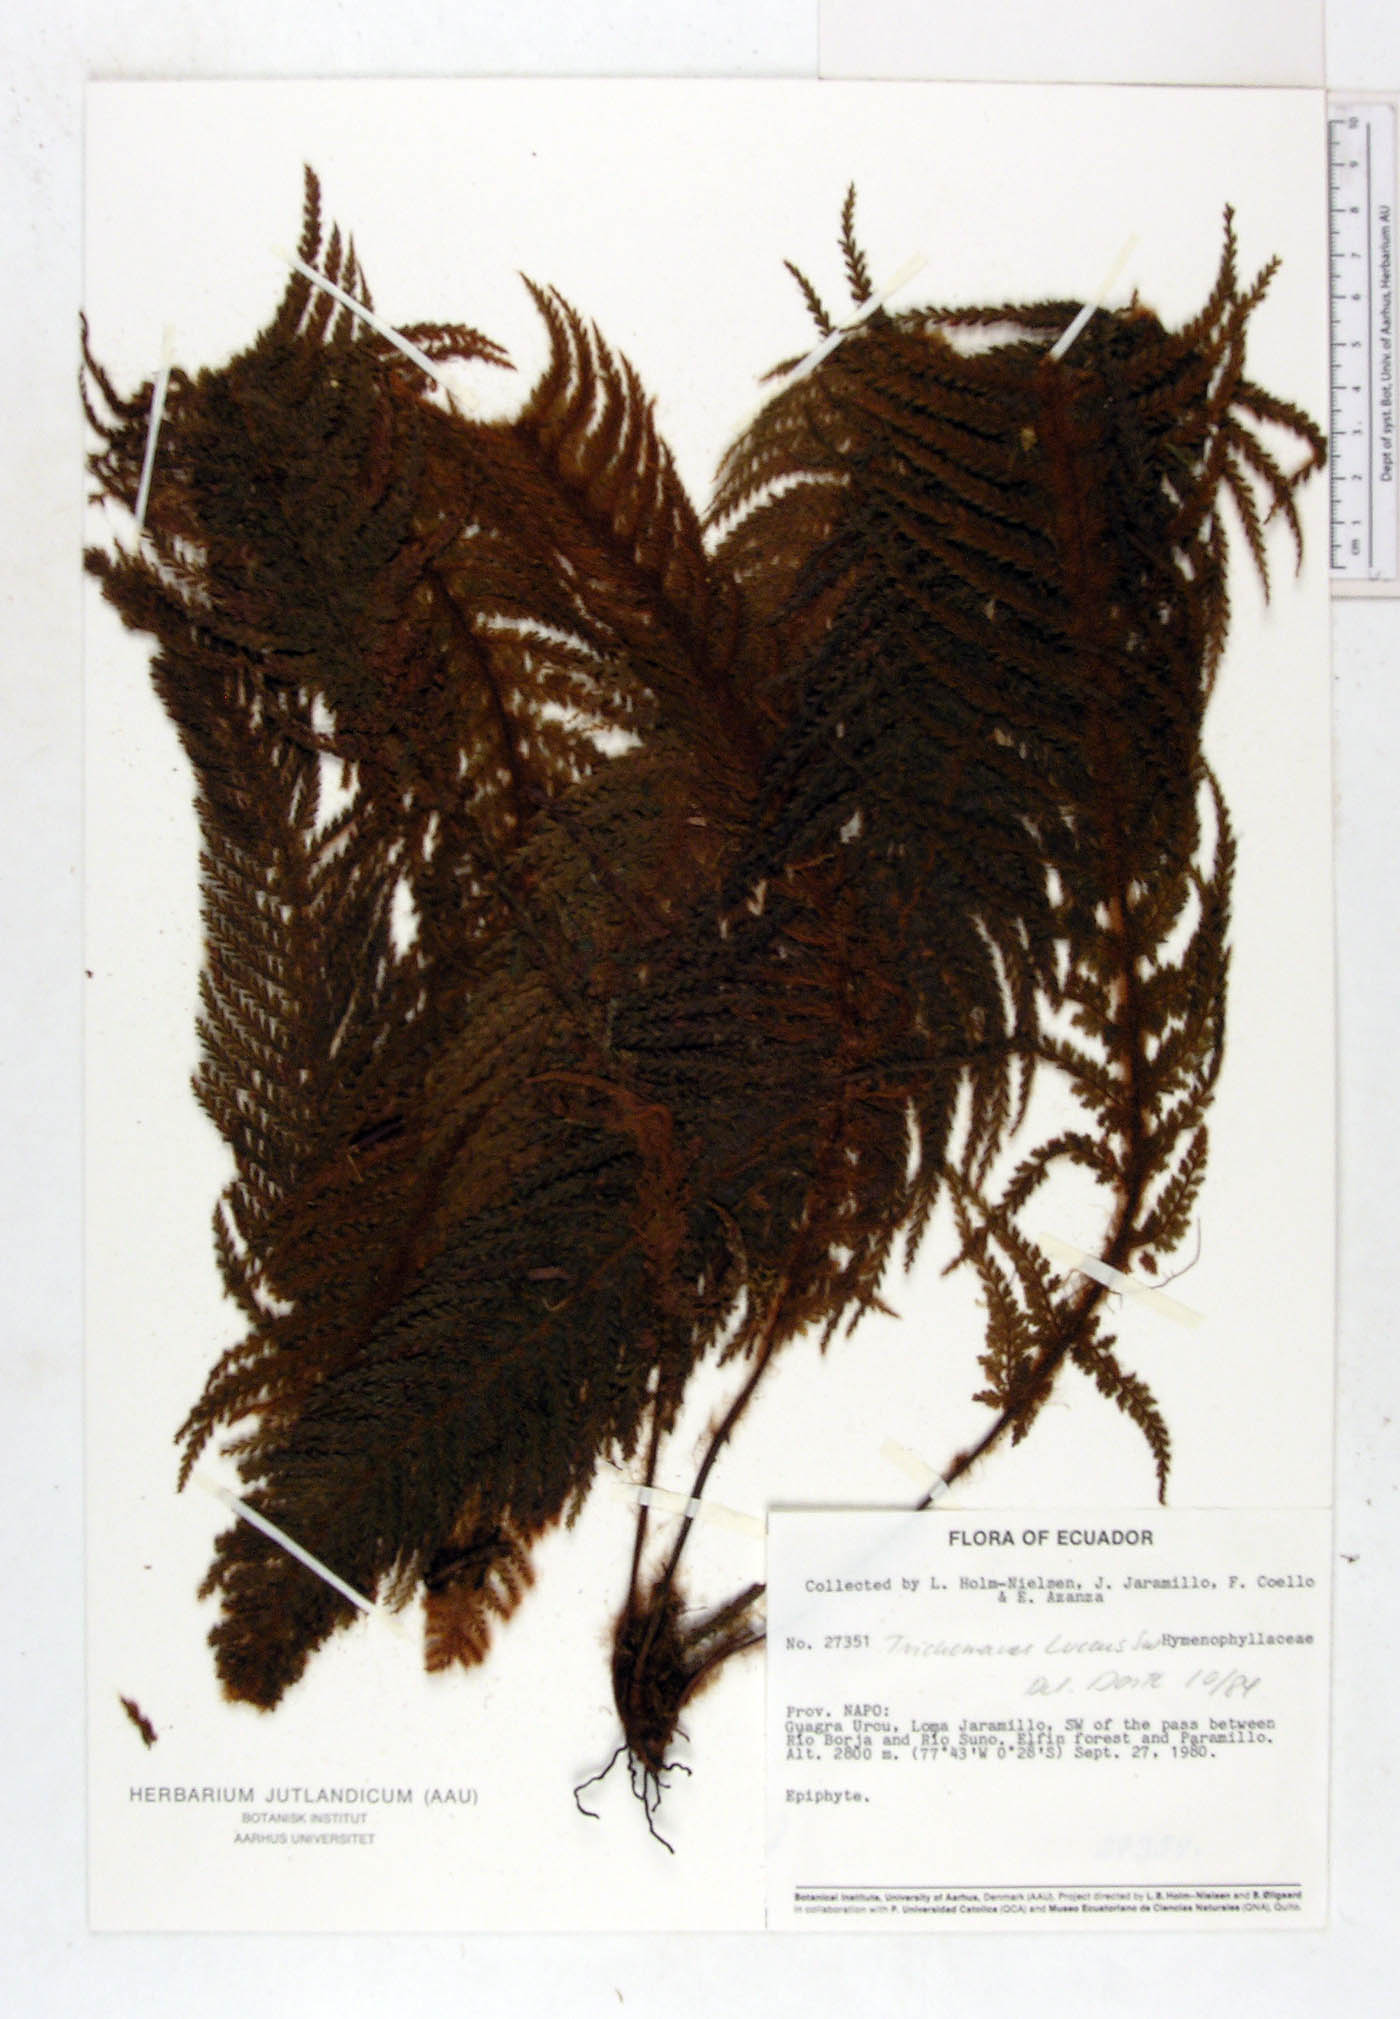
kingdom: Plantae
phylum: Tracheophyta
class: Polypodiopsida
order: Hymenophyllales
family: Hymenophyllaceae
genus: Trichomanes
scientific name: Trichomanes lucens
